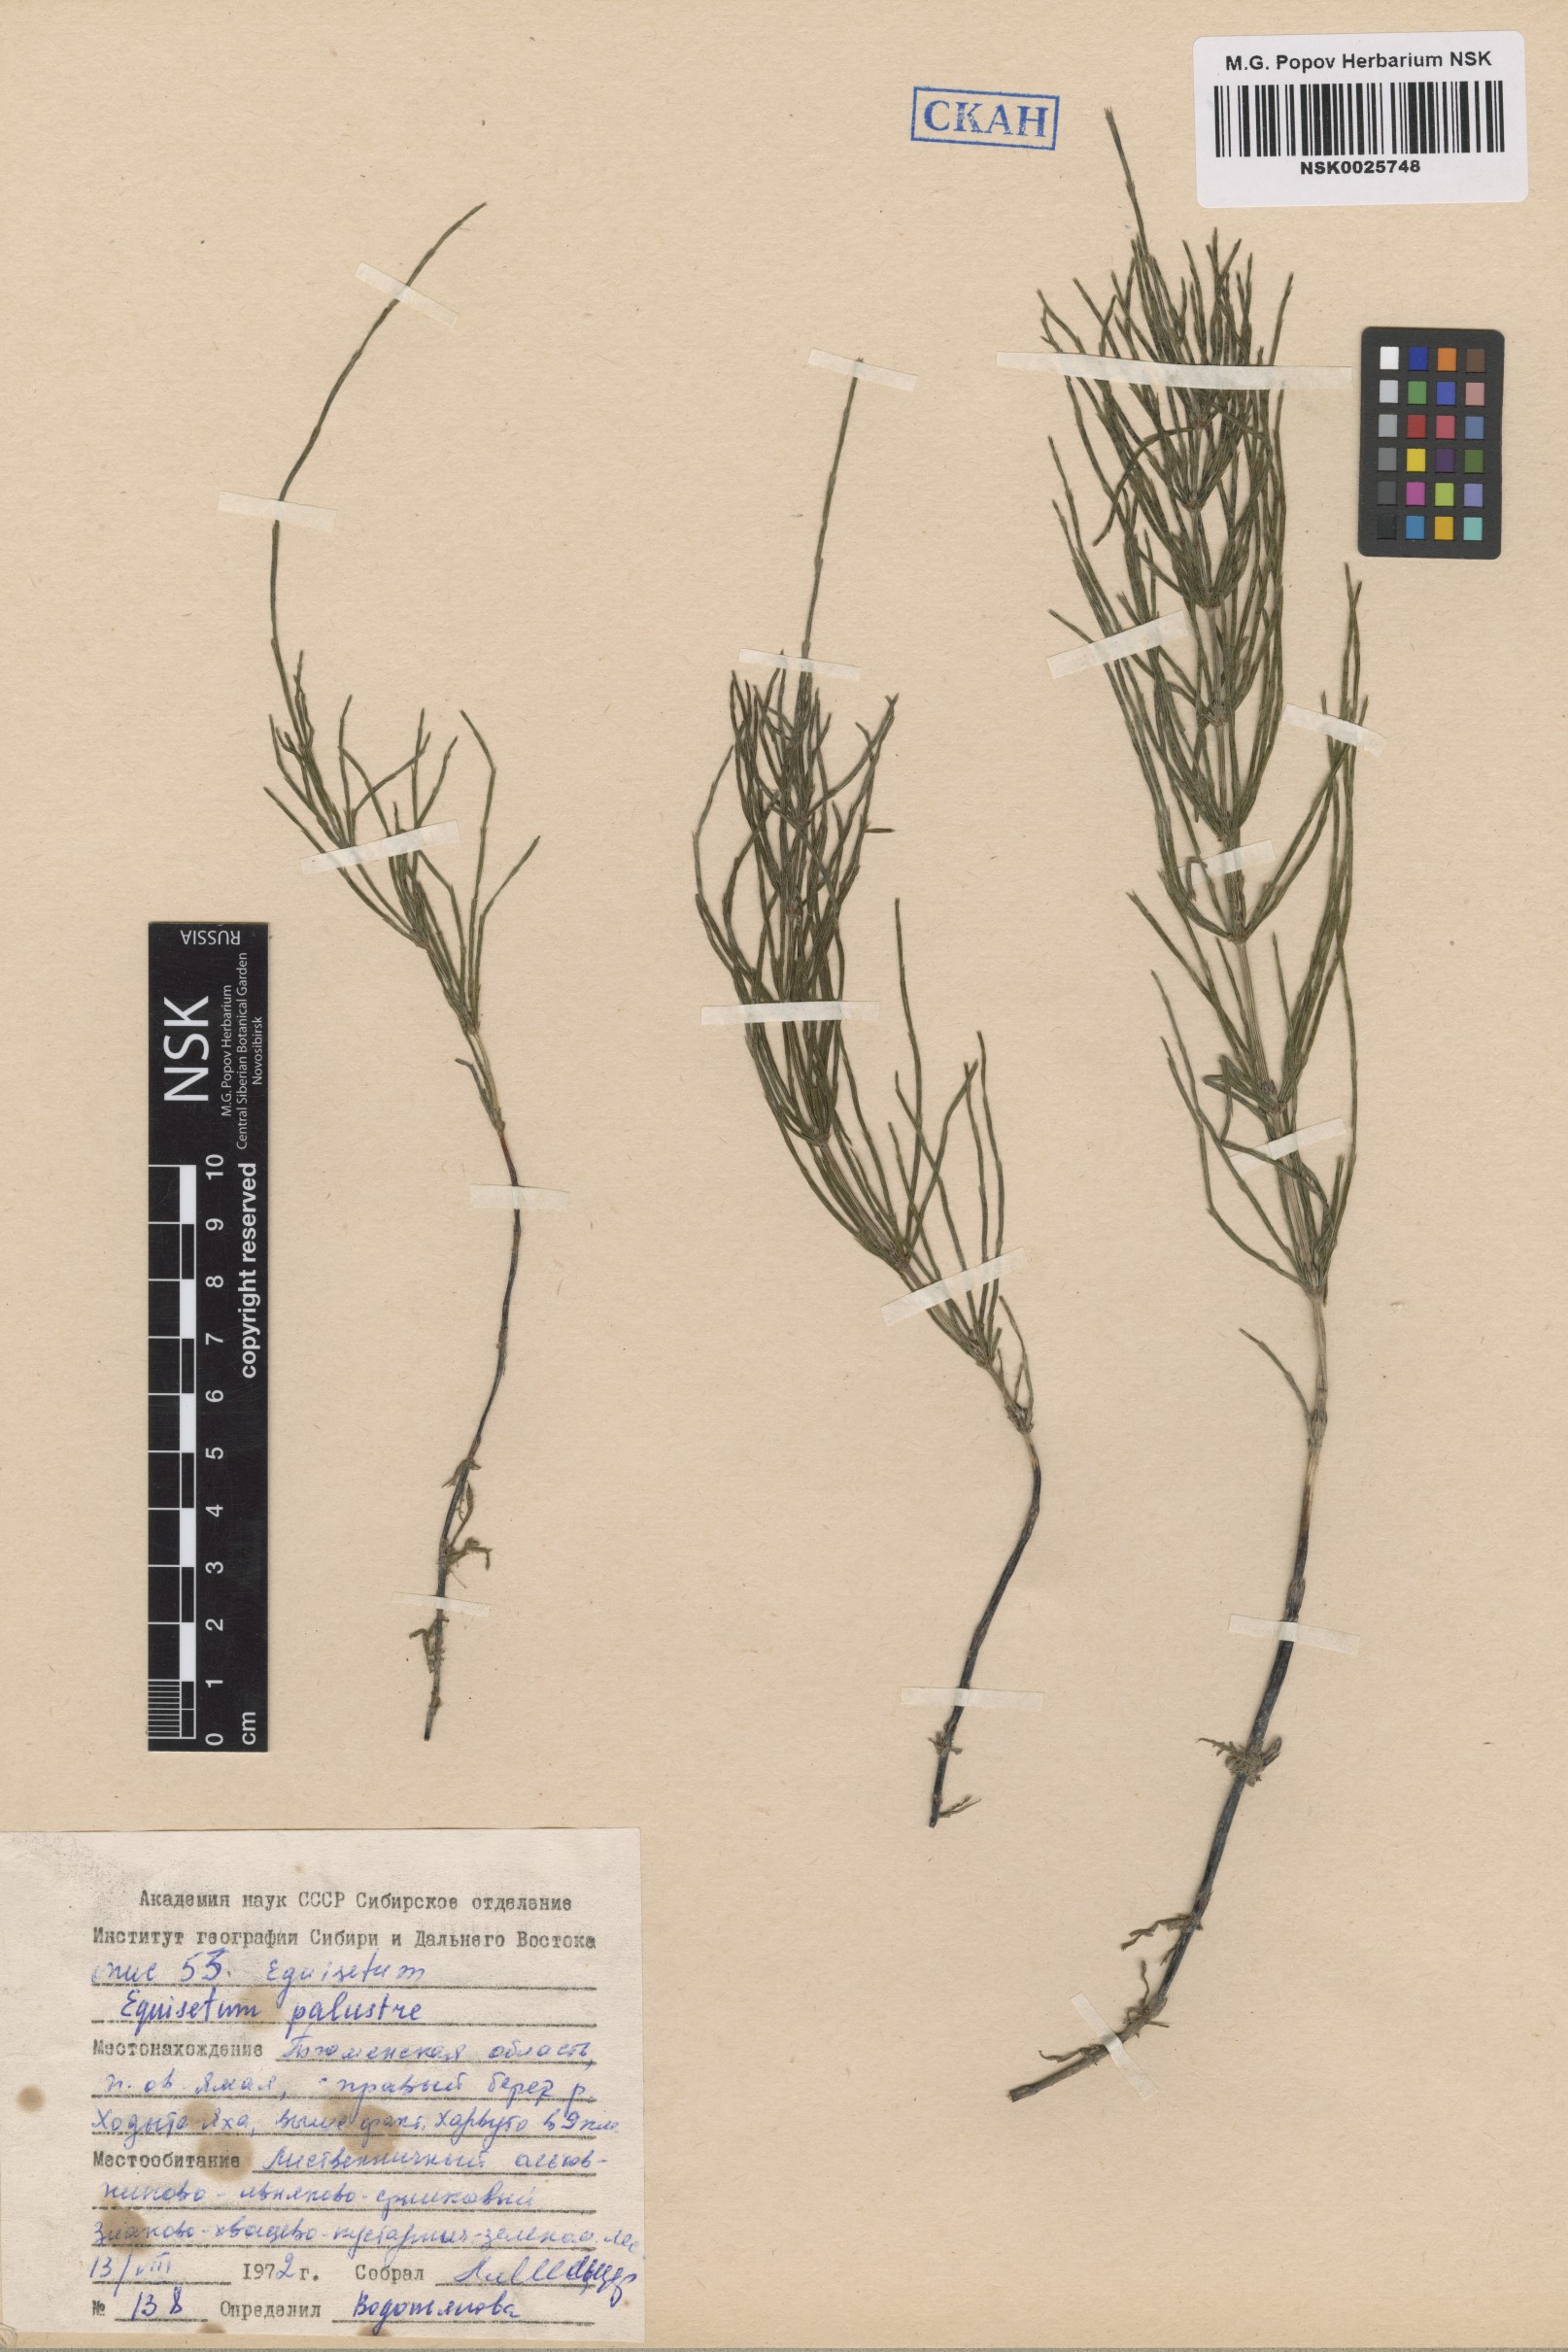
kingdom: Plantae
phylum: Tracheophyta
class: Polypodiopsida
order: Equisetales
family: Equisetaceae
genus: Equisetum
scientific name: Equisetum palustre
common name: Marsh horsetail
